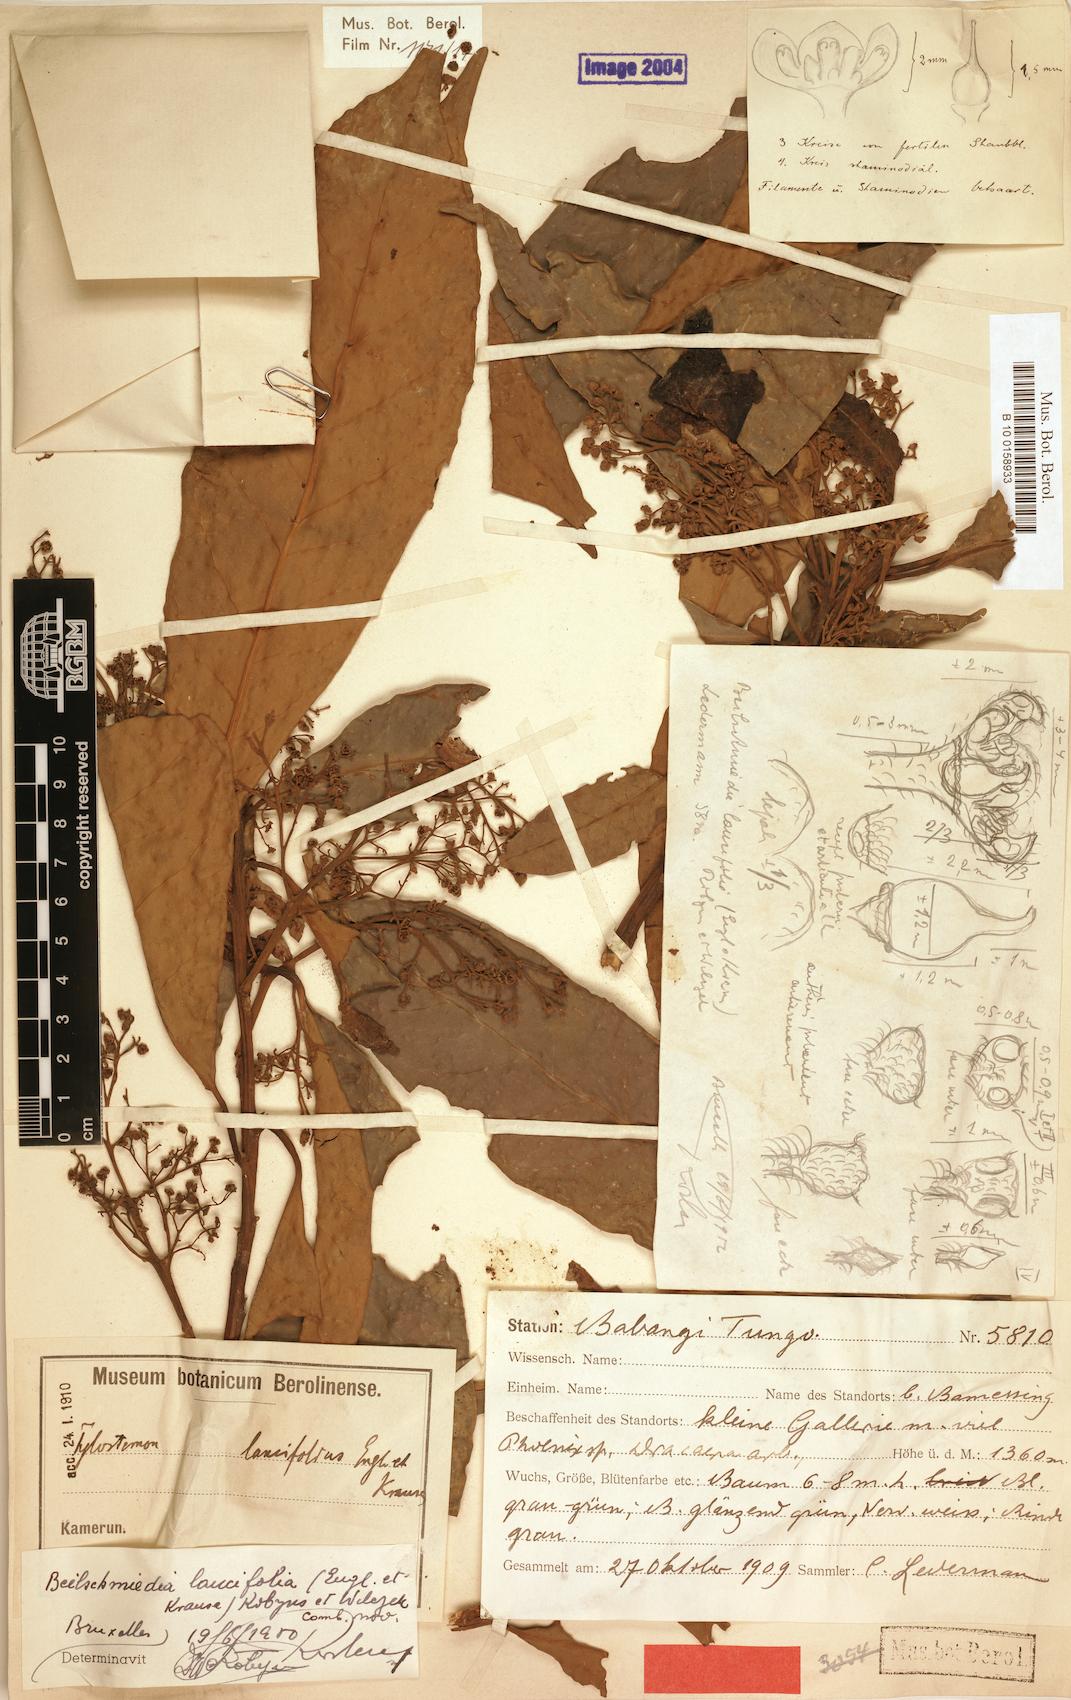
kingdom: Plantae
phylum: Tracheophyta
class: Magnoliopsida
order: Laurales
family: Lauraceae
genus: Beilschmiedia
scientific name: Beilschmiedia lancilimba
